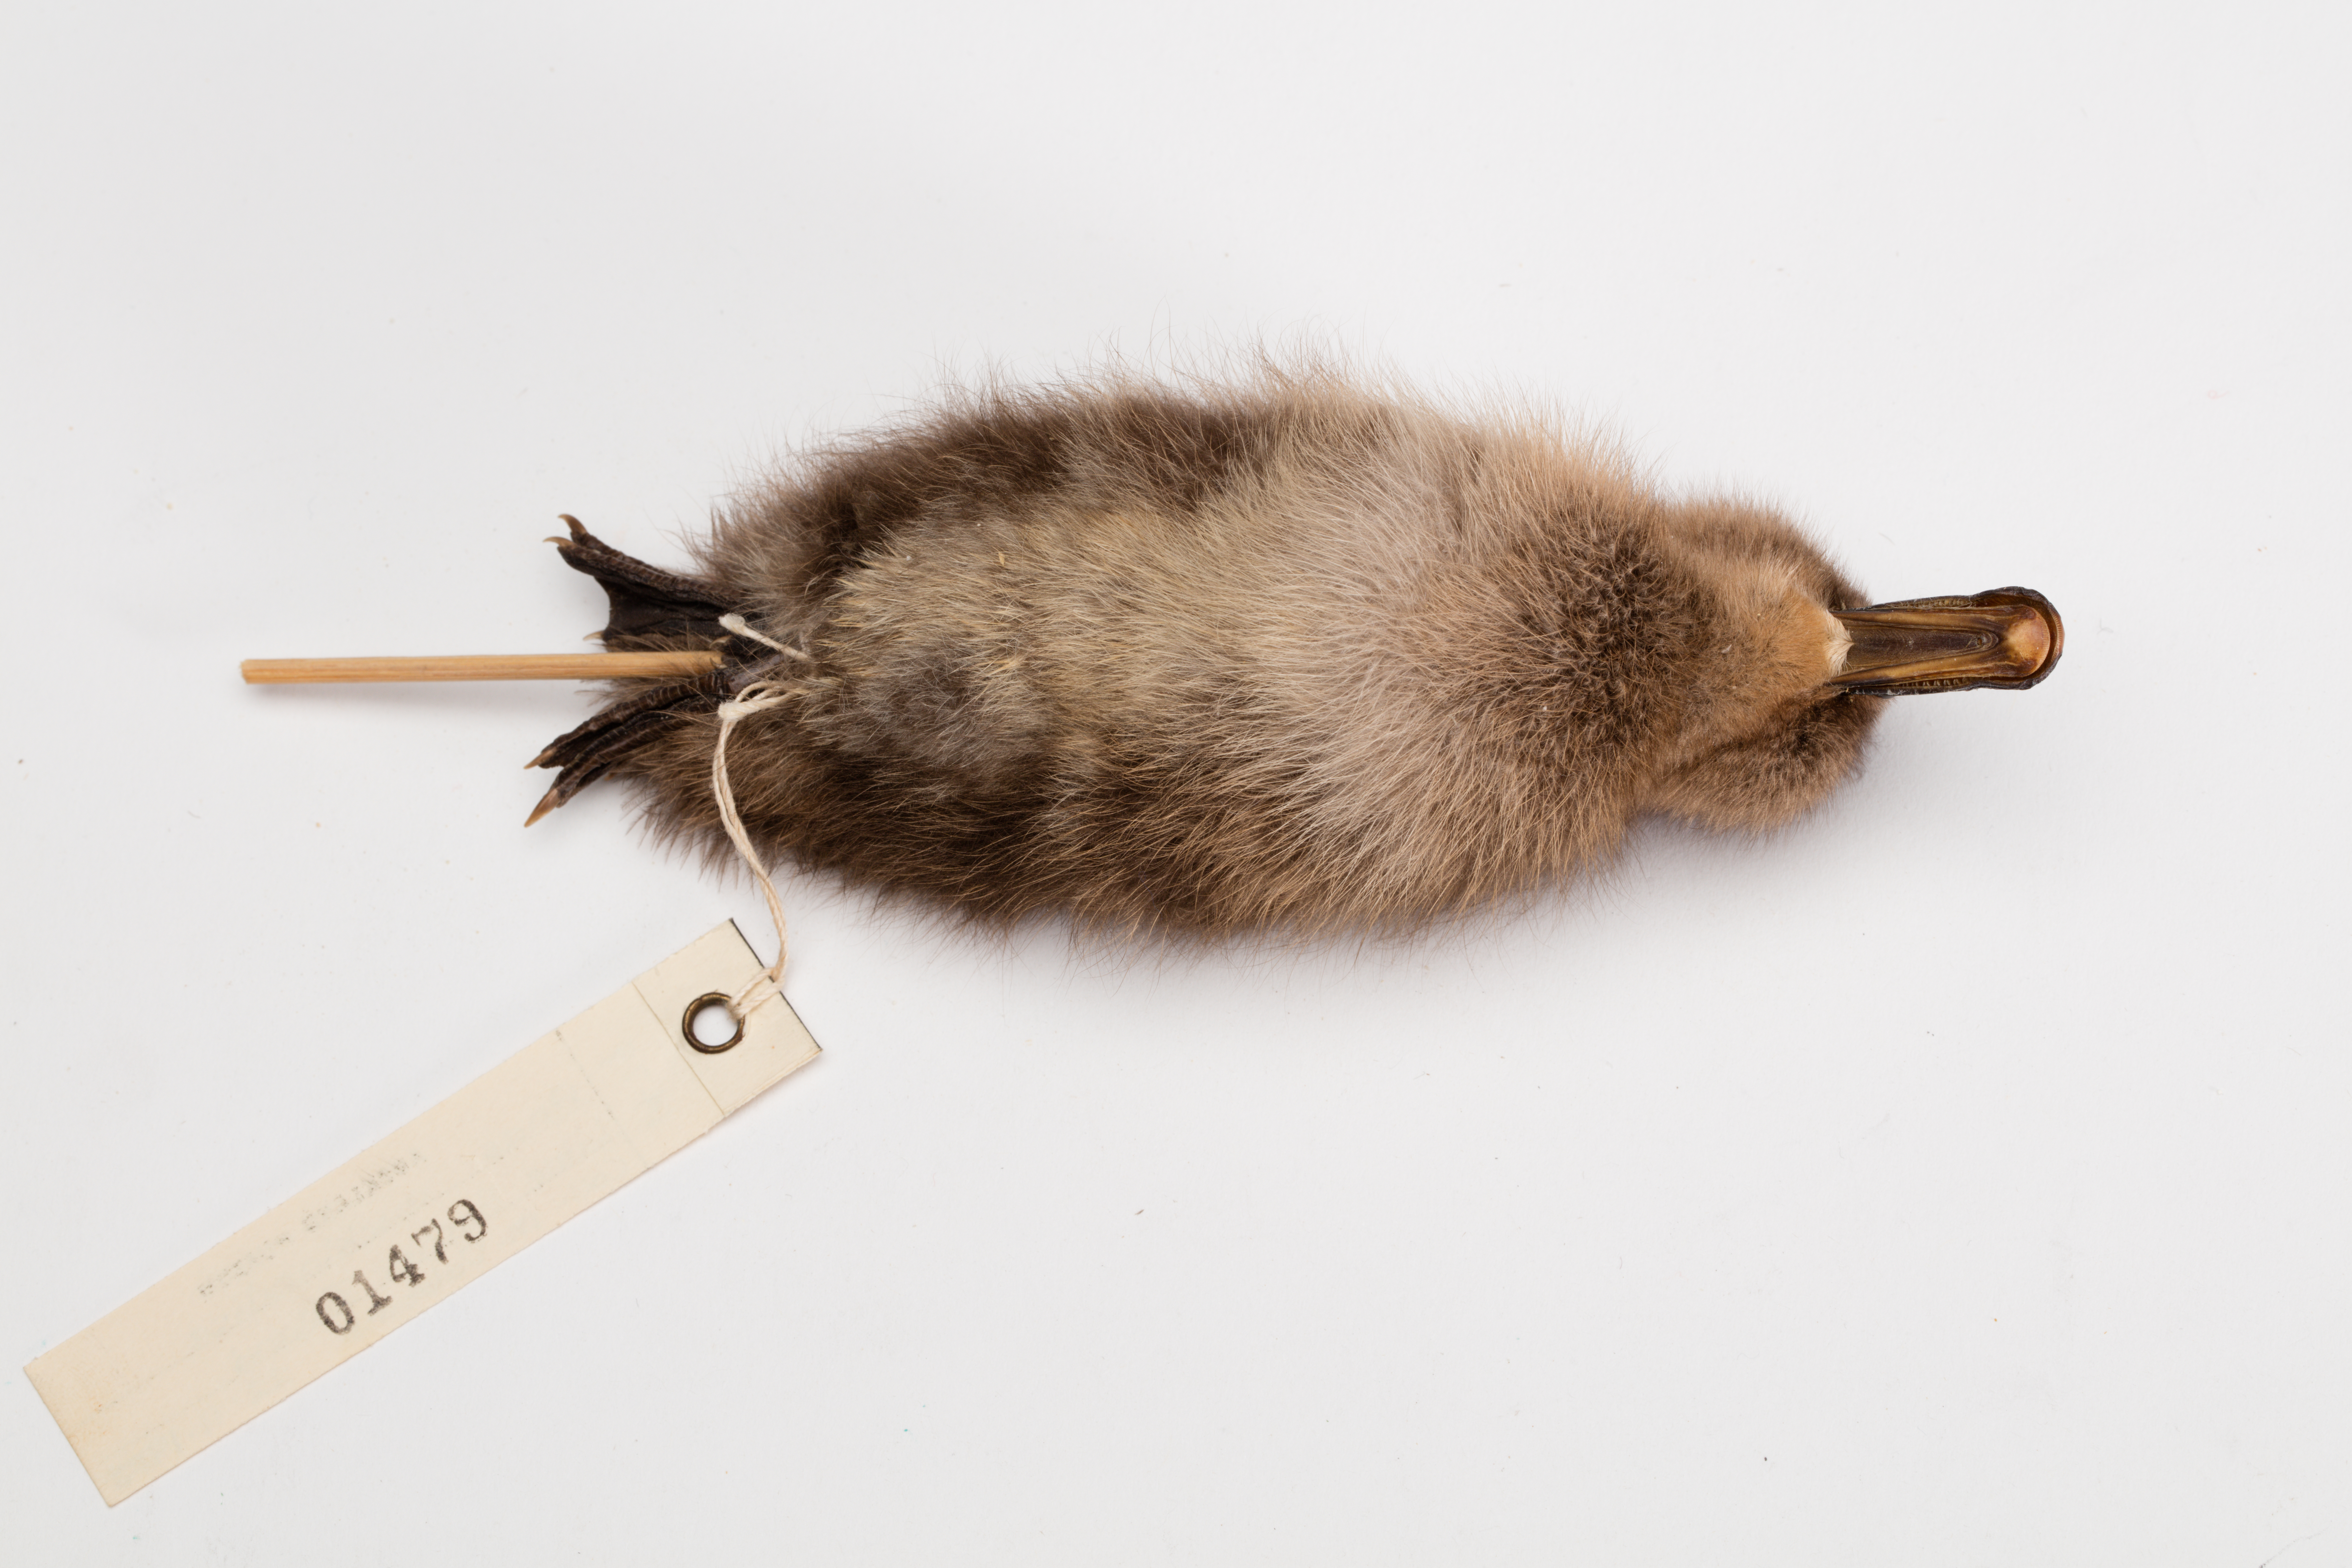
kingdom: Animalia
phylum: Chordata
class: Aves
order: Anseriformes
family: Anatidae
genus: Anas
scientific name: Anas chlorotis
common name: Brown teal
